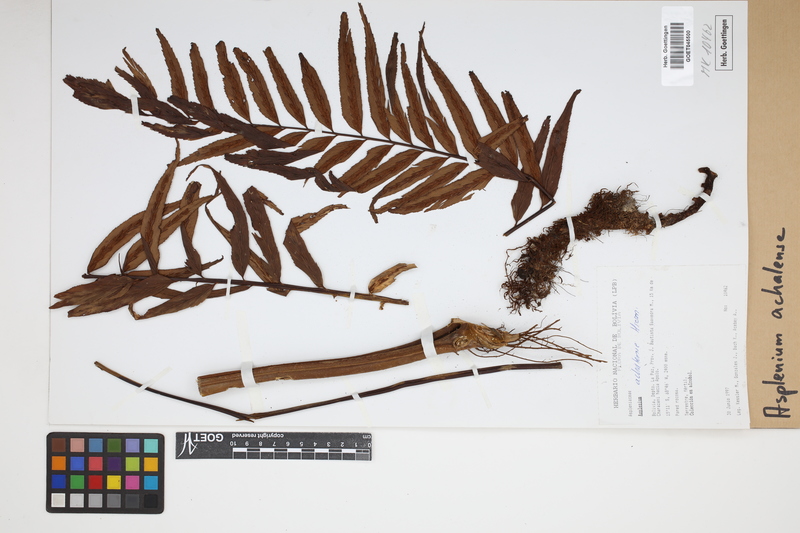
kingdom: Plantae
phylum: Tracheophyta
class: Polypodiopsida
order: Polypodiales
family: Aspleniaceae
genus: Asplenium
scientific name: Asplenium achalense
